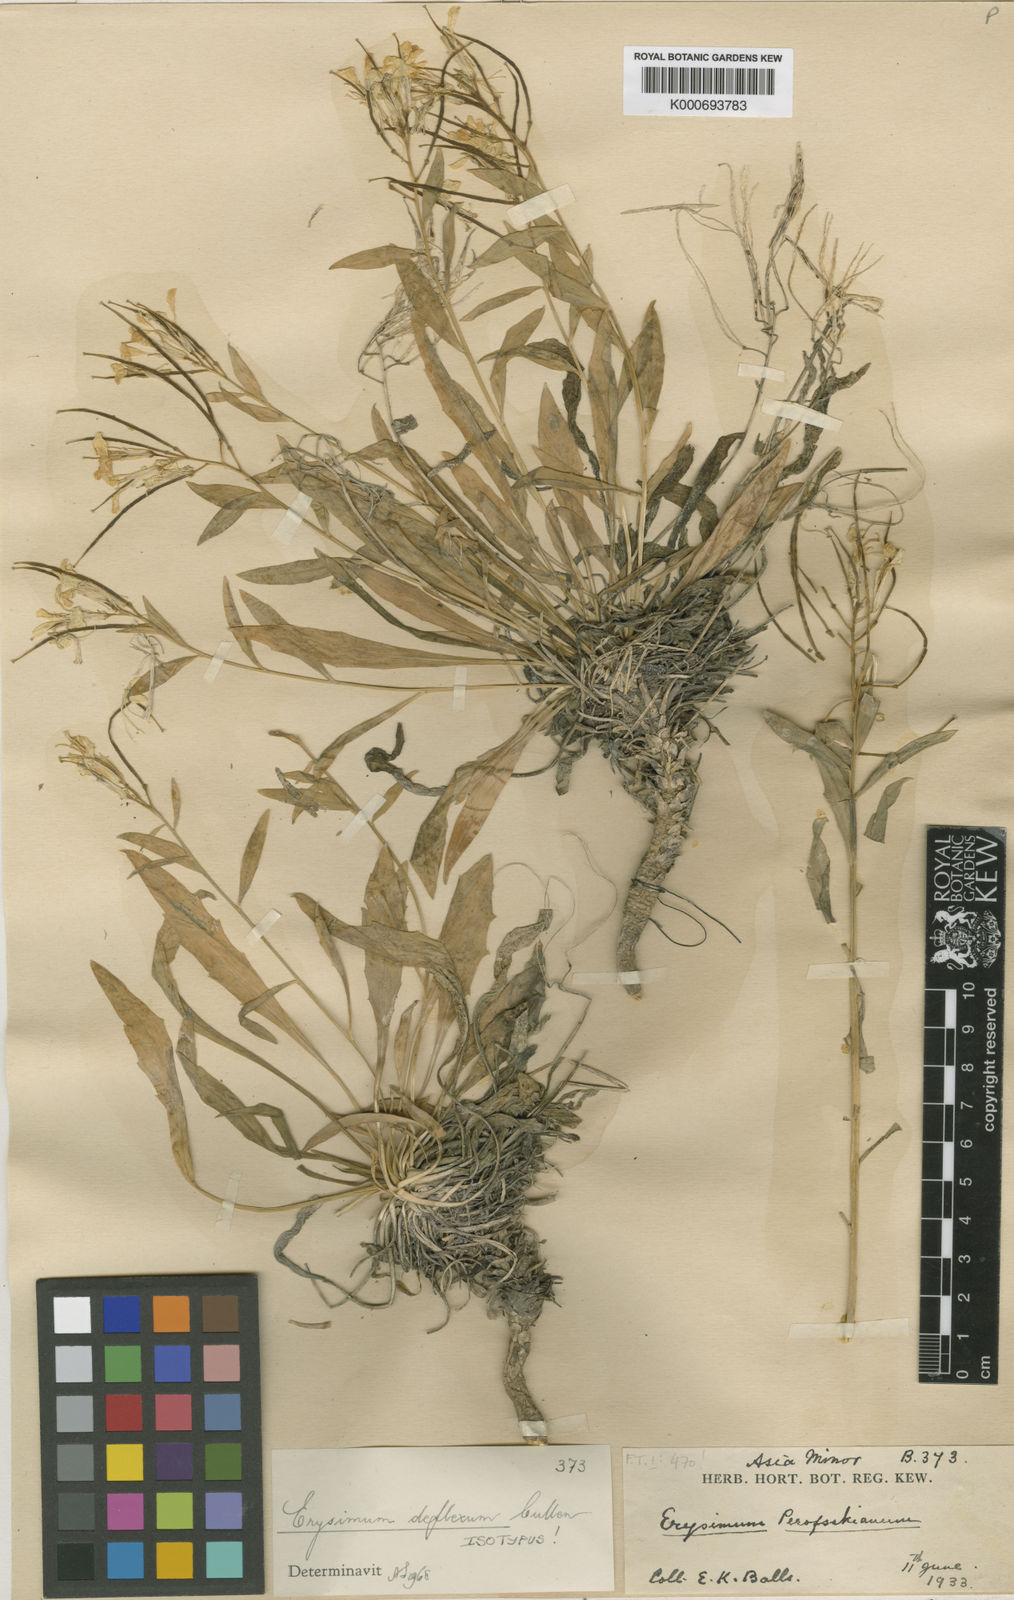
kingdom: Plantae
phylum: Tracheophyta
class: Magnoliopsida
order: Brassicales
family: Brassicaceae
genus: Erysimum
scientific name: Erysimum szowitsianum
